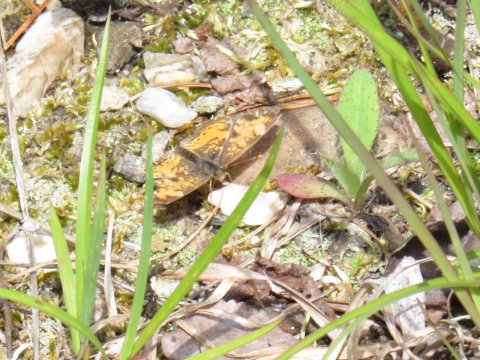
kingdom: Animalia
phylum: Arthropoda
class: Insecta
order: Lepidoptera
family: Nymphalidae
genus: Phyciodes
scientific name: Phyciodes
